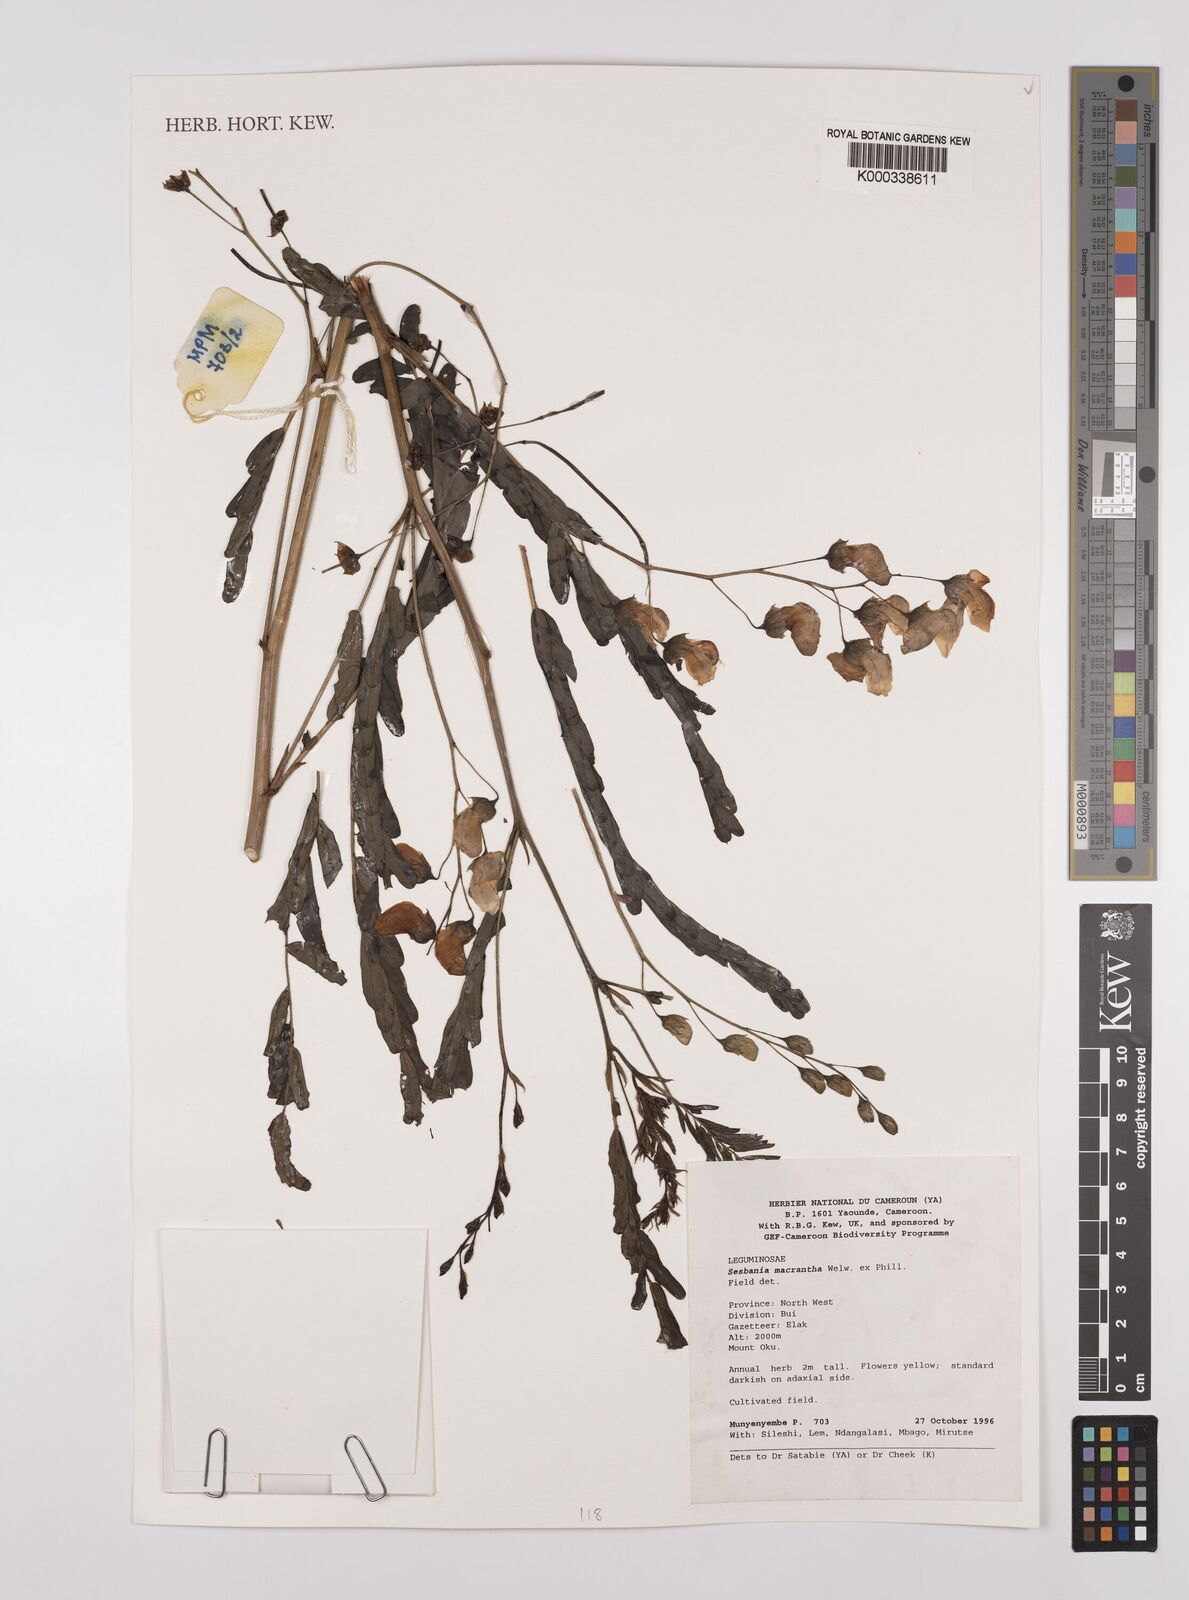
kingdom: Plantae
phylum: Tracheophyta
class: Magnoliopsida
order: Fabales
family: Fabaceae
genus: Sesbania
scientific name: Sesbania macrantha
